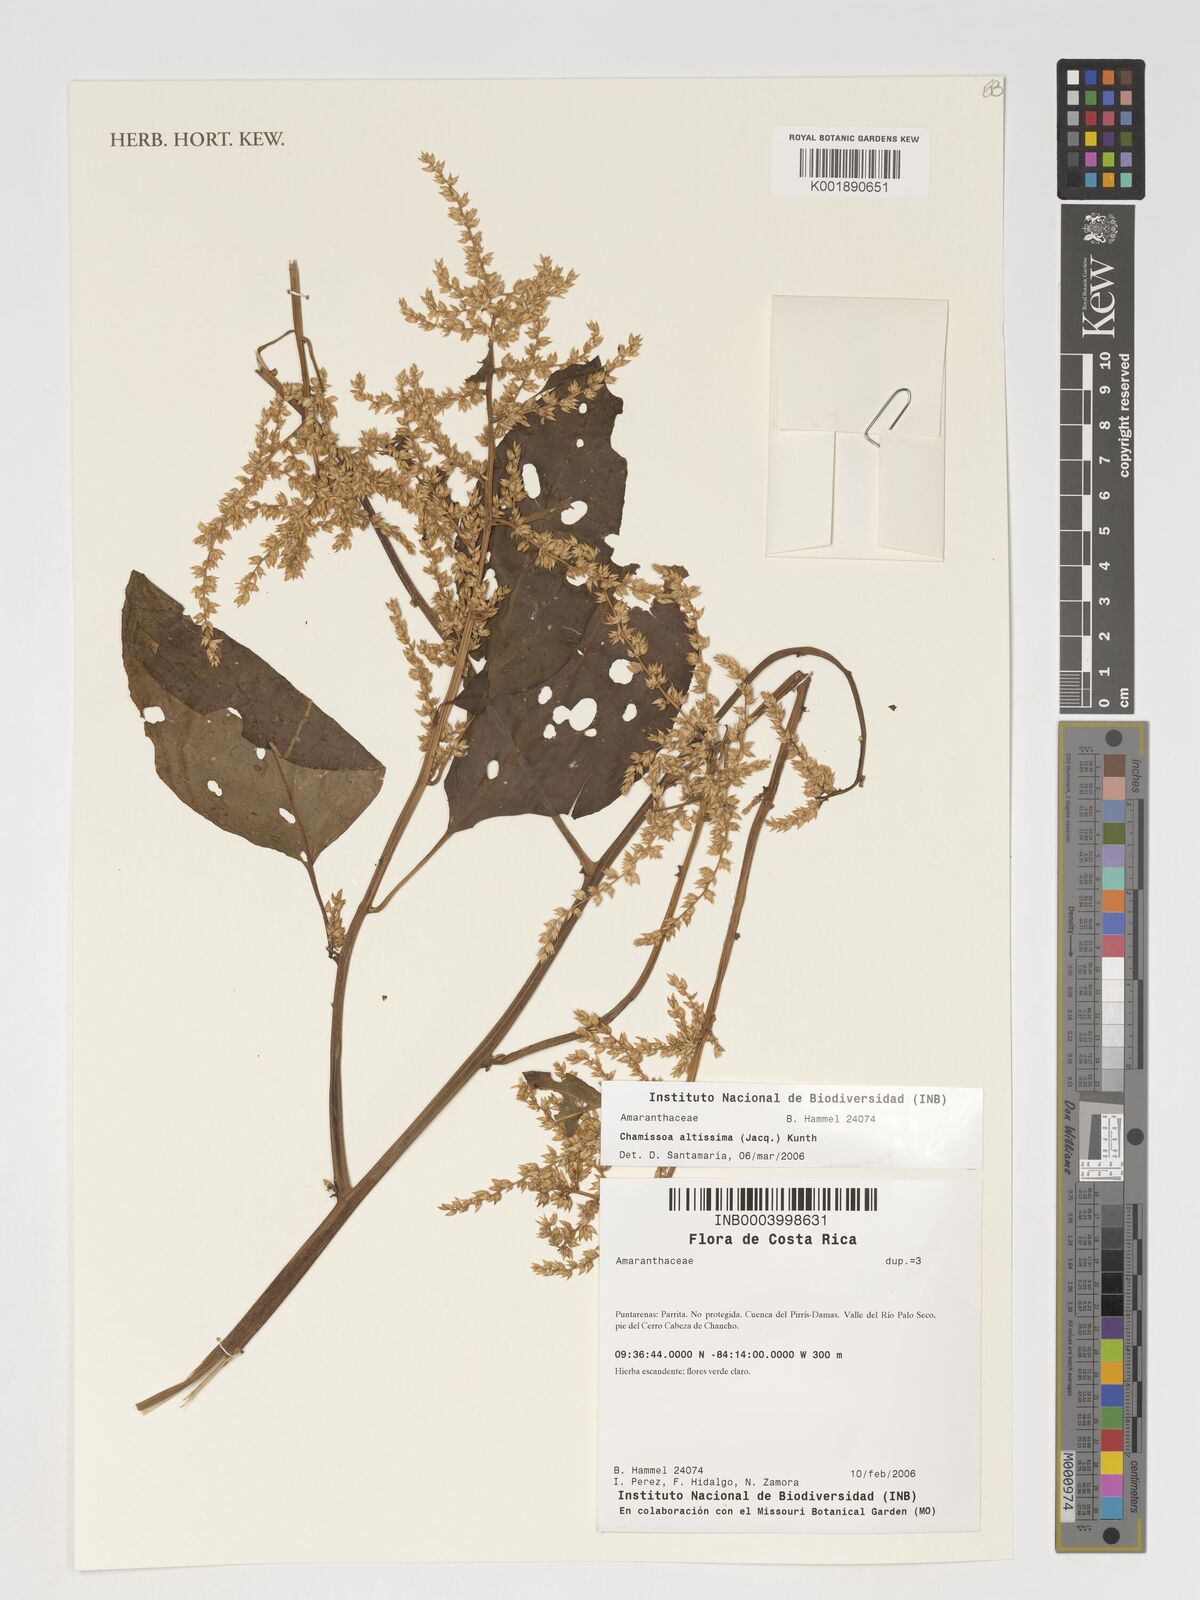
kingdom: Plantae
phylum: Tracheophyta
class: Magnoliopsida
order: Caryophyllales
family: Amaranthaceae
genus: Chamissoa
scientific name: Chamissoa altissima
